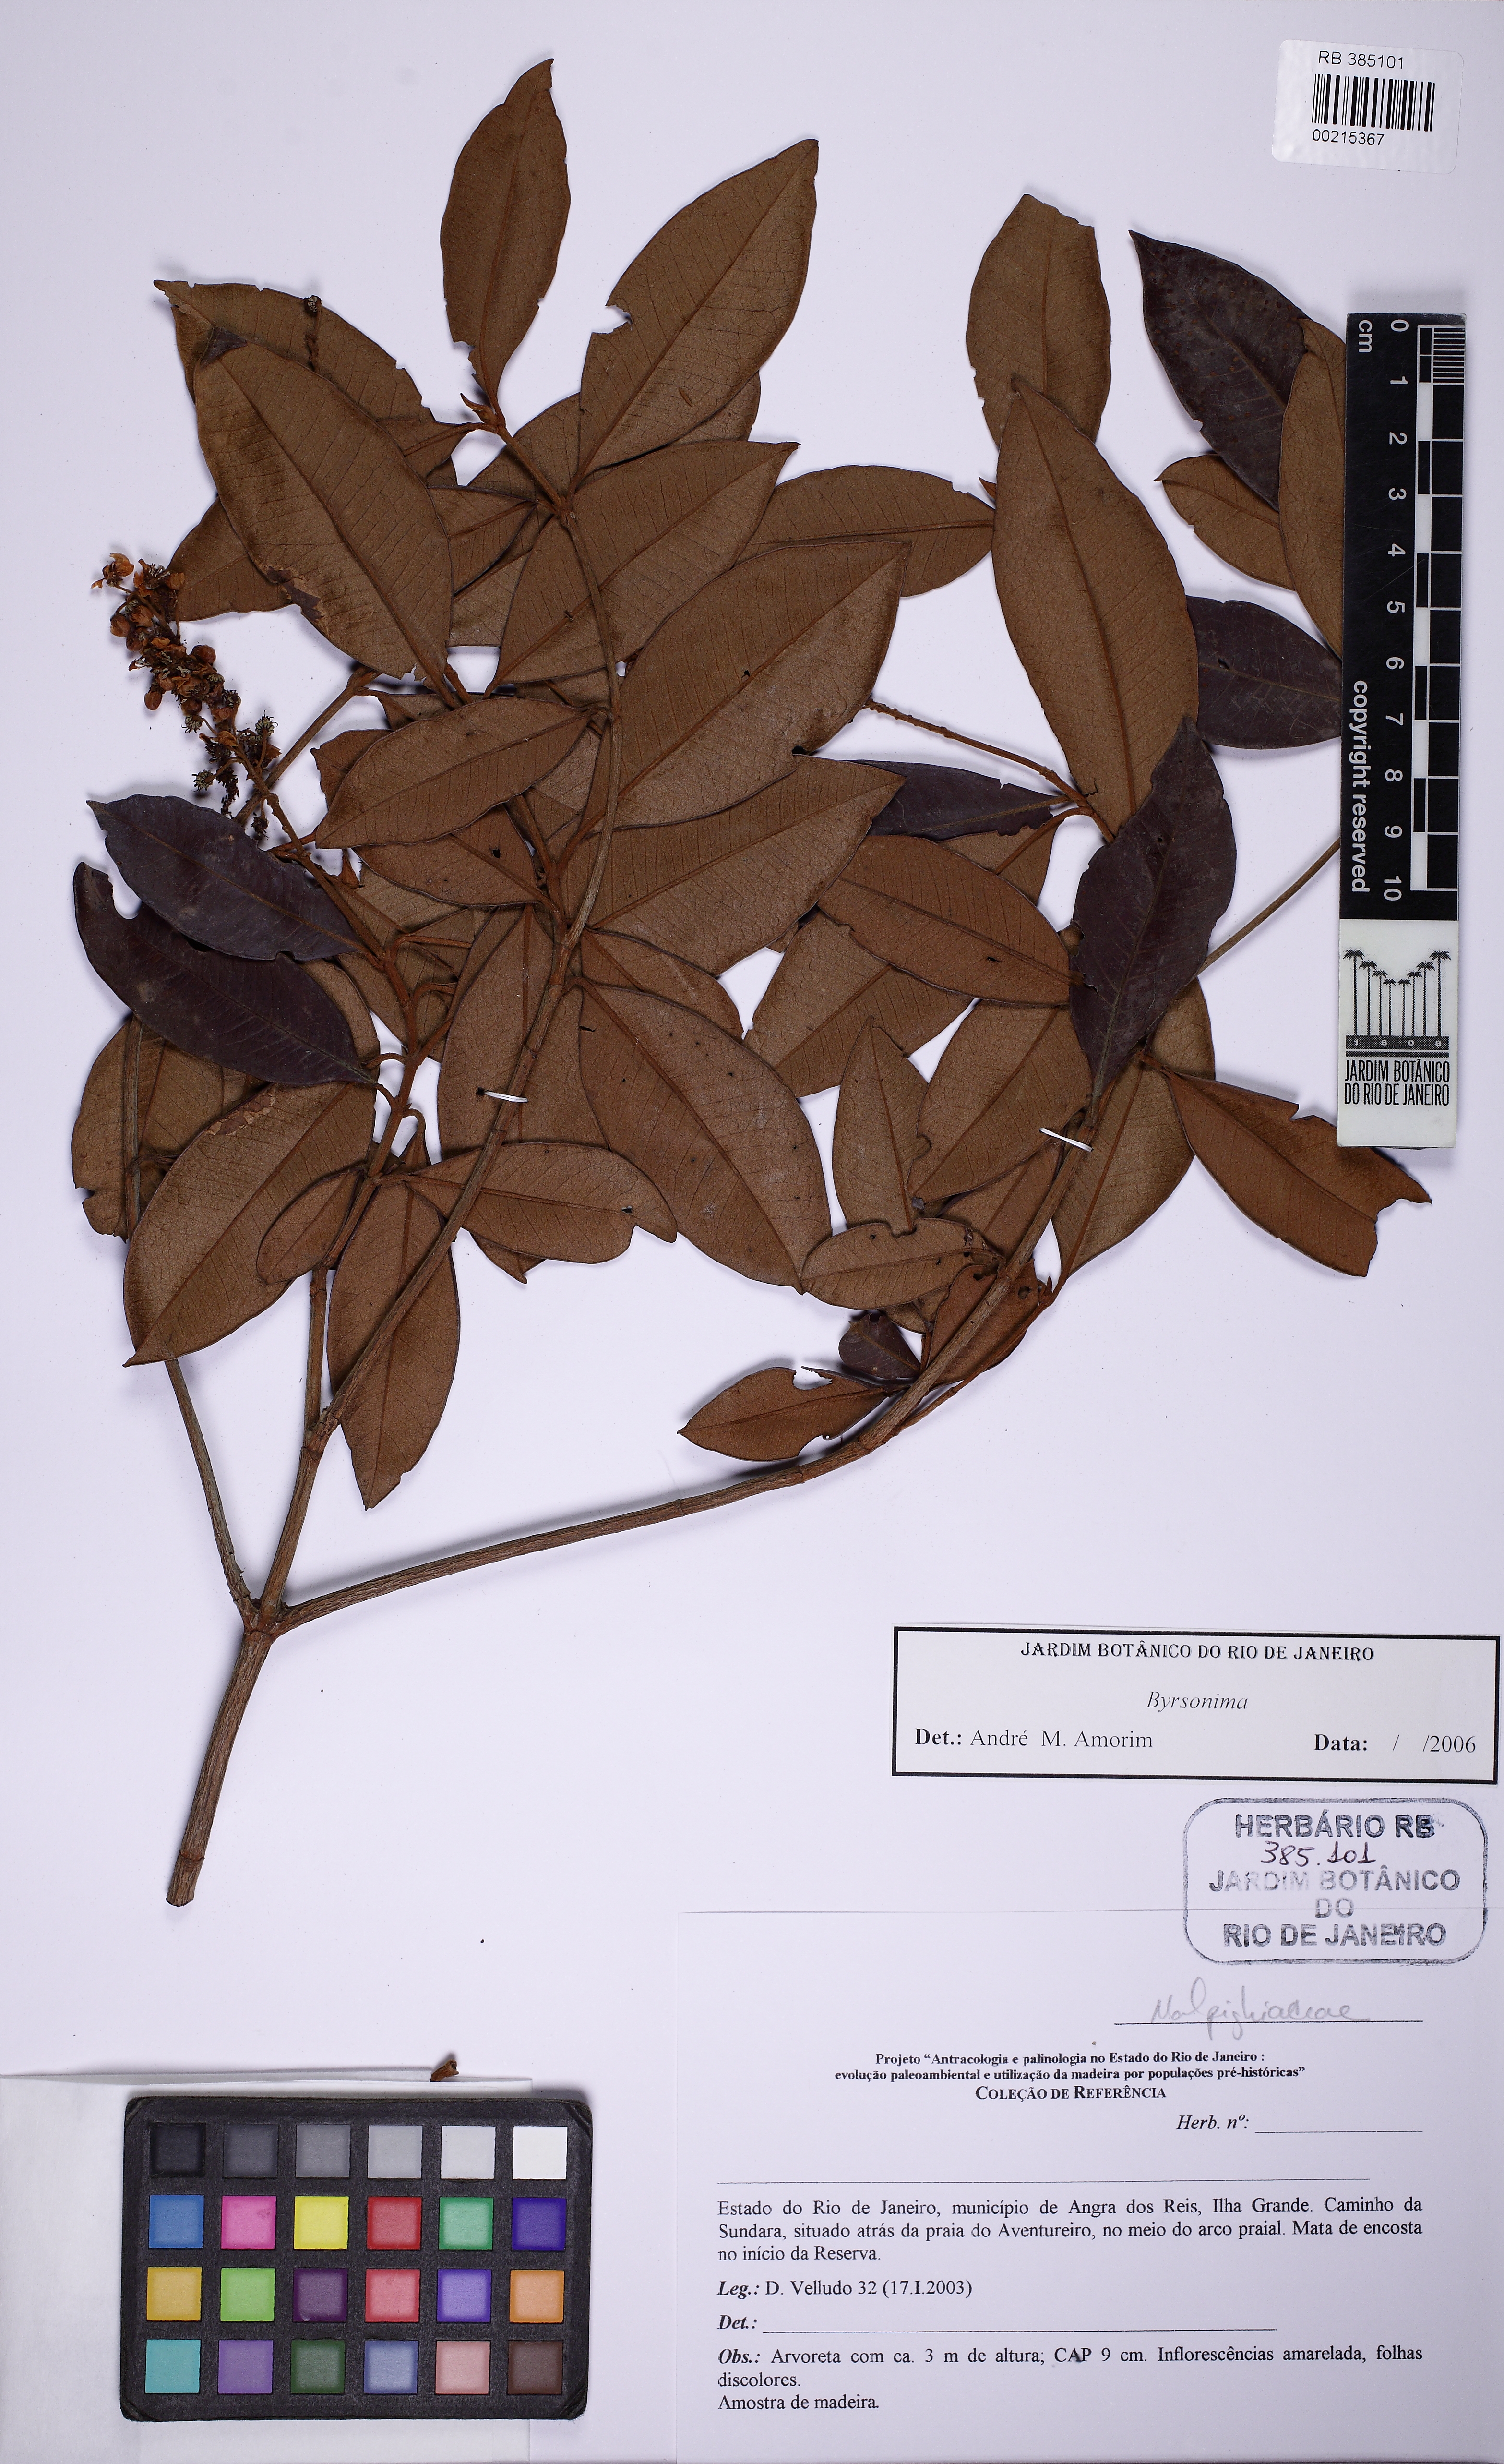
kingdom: Plantae
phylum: Tracheophyta
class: Magnoliopsida
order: Malpighiales
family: Malpighiaceae
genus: Byrsonima
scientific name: Byrsonima sericea
